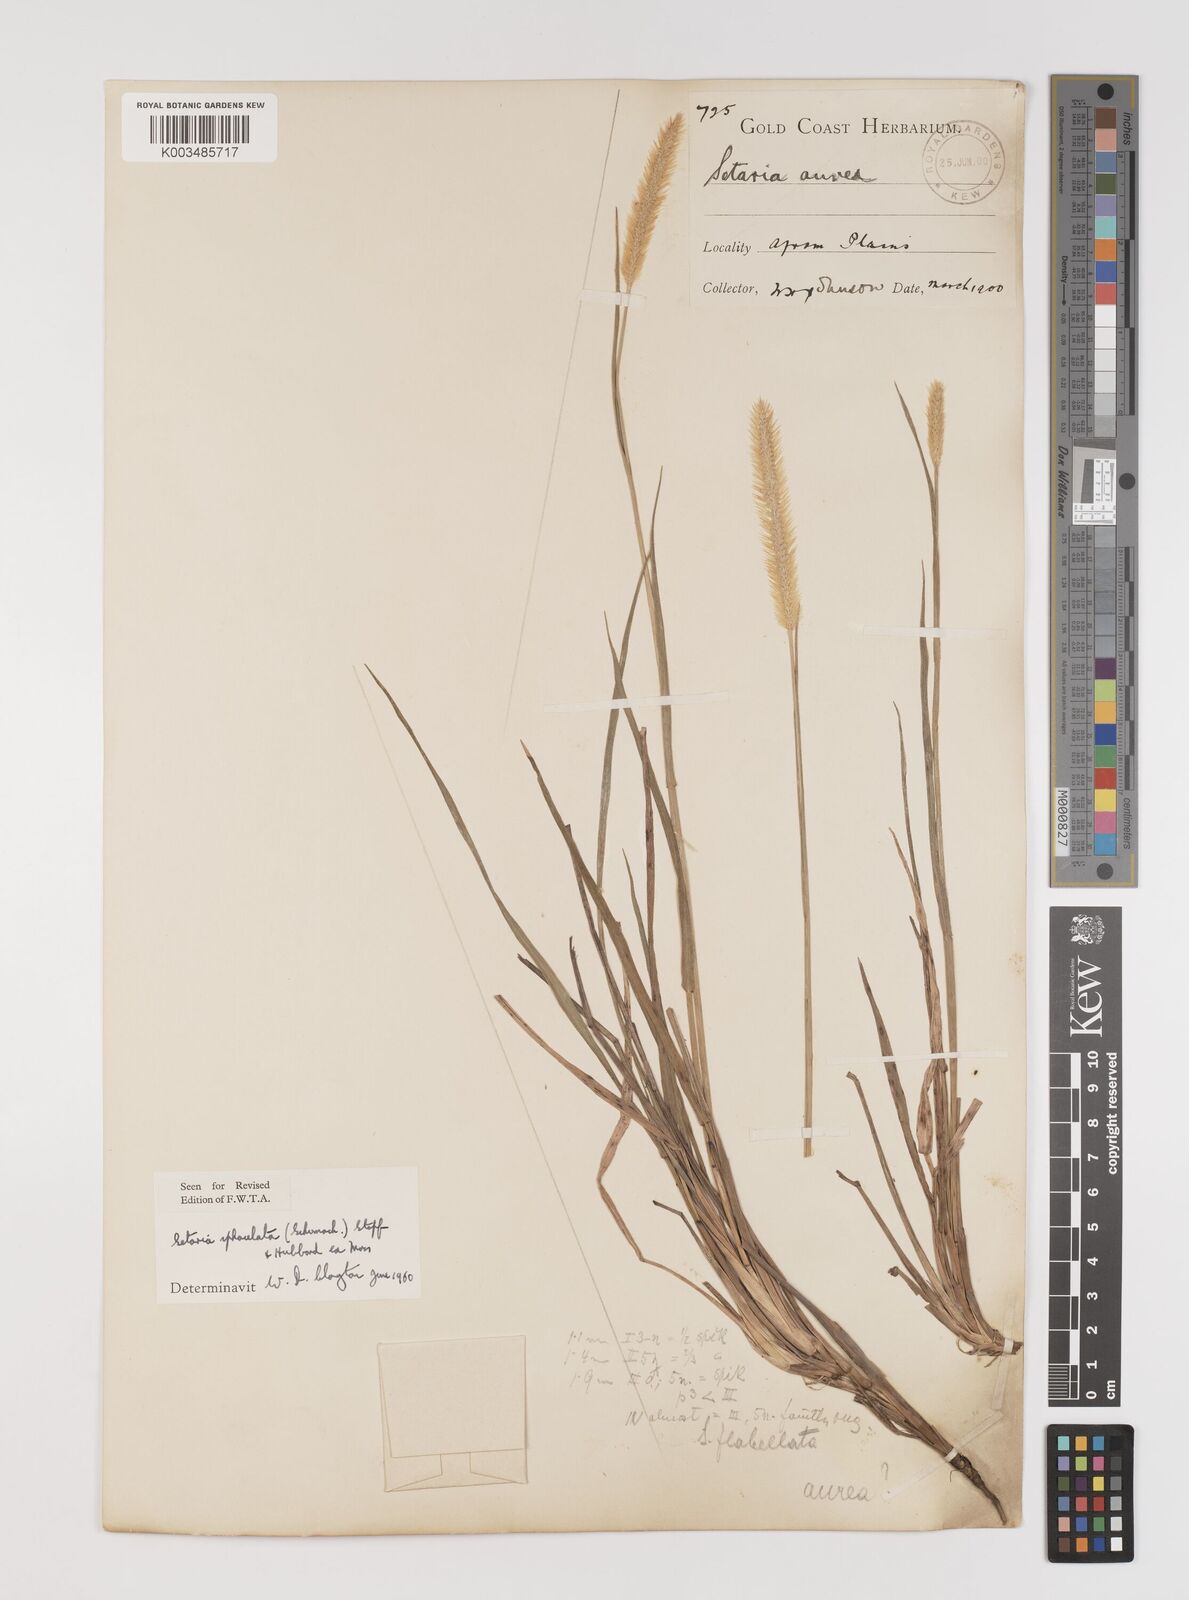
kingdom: Plantae
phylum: Tracheophyta
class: Liliopsida
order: Poales
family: Poaceae
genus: Setaria
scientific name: Setaria sphacelata
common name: African bristlegrass
